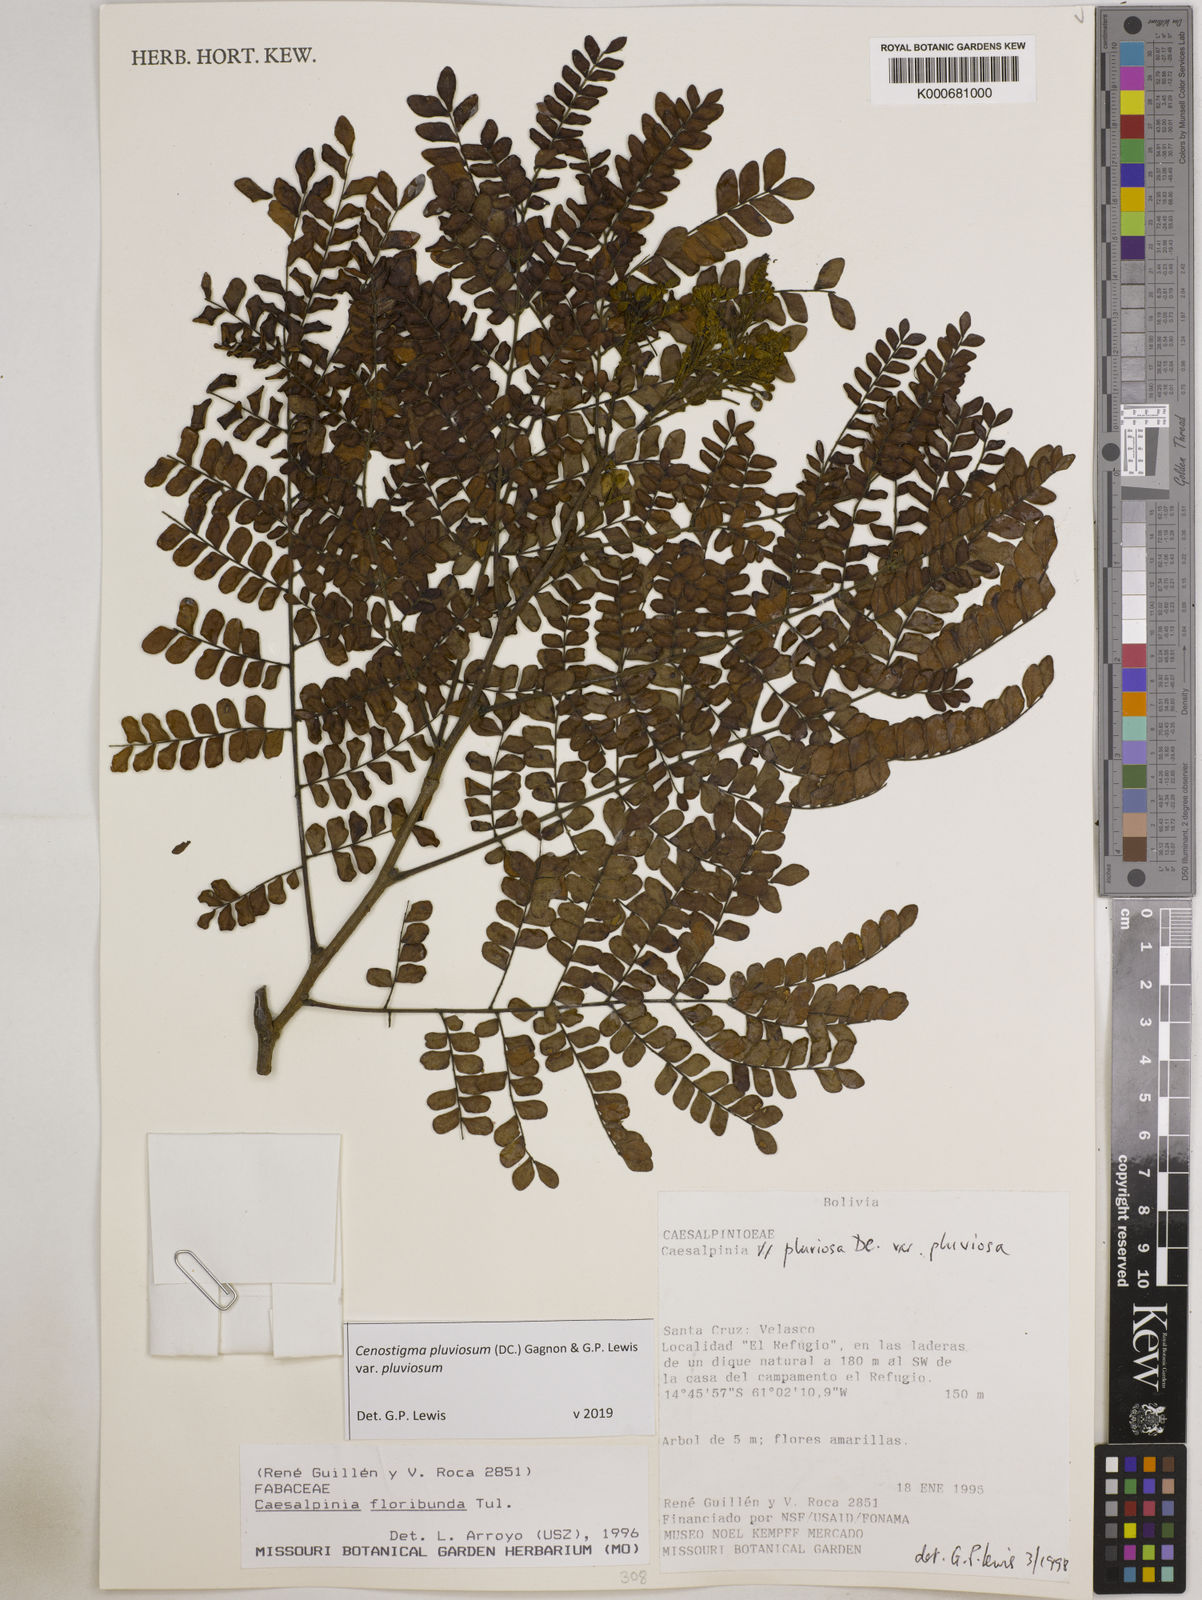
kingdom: Plantae
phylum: Tracheophyta
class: Magnoliopsida
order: Fabales
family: Fabaceae
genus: Cenostigma
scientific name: Cenostigma pluviosum
